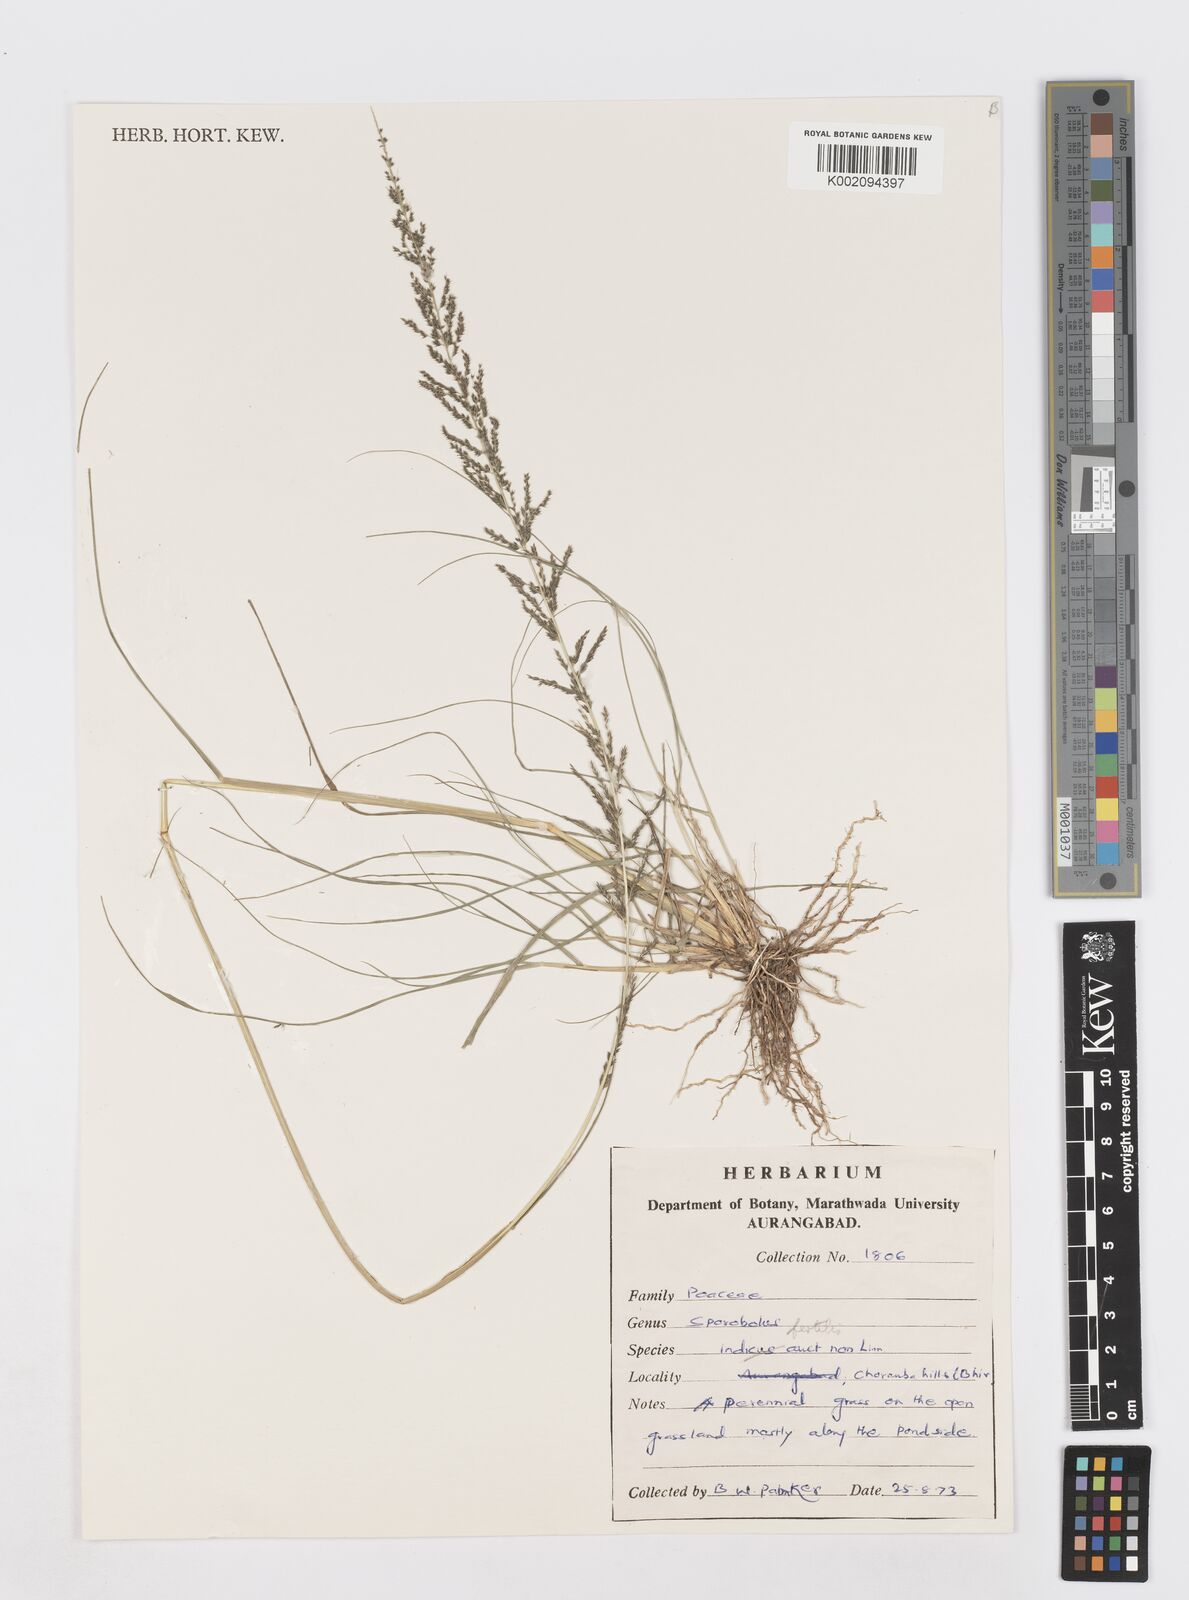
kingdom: Plantae
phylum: Tracheophyta
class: Liliopsida
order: Poales
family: Poaceae
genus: Sporobolus
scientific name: Sporobolus fertilis
